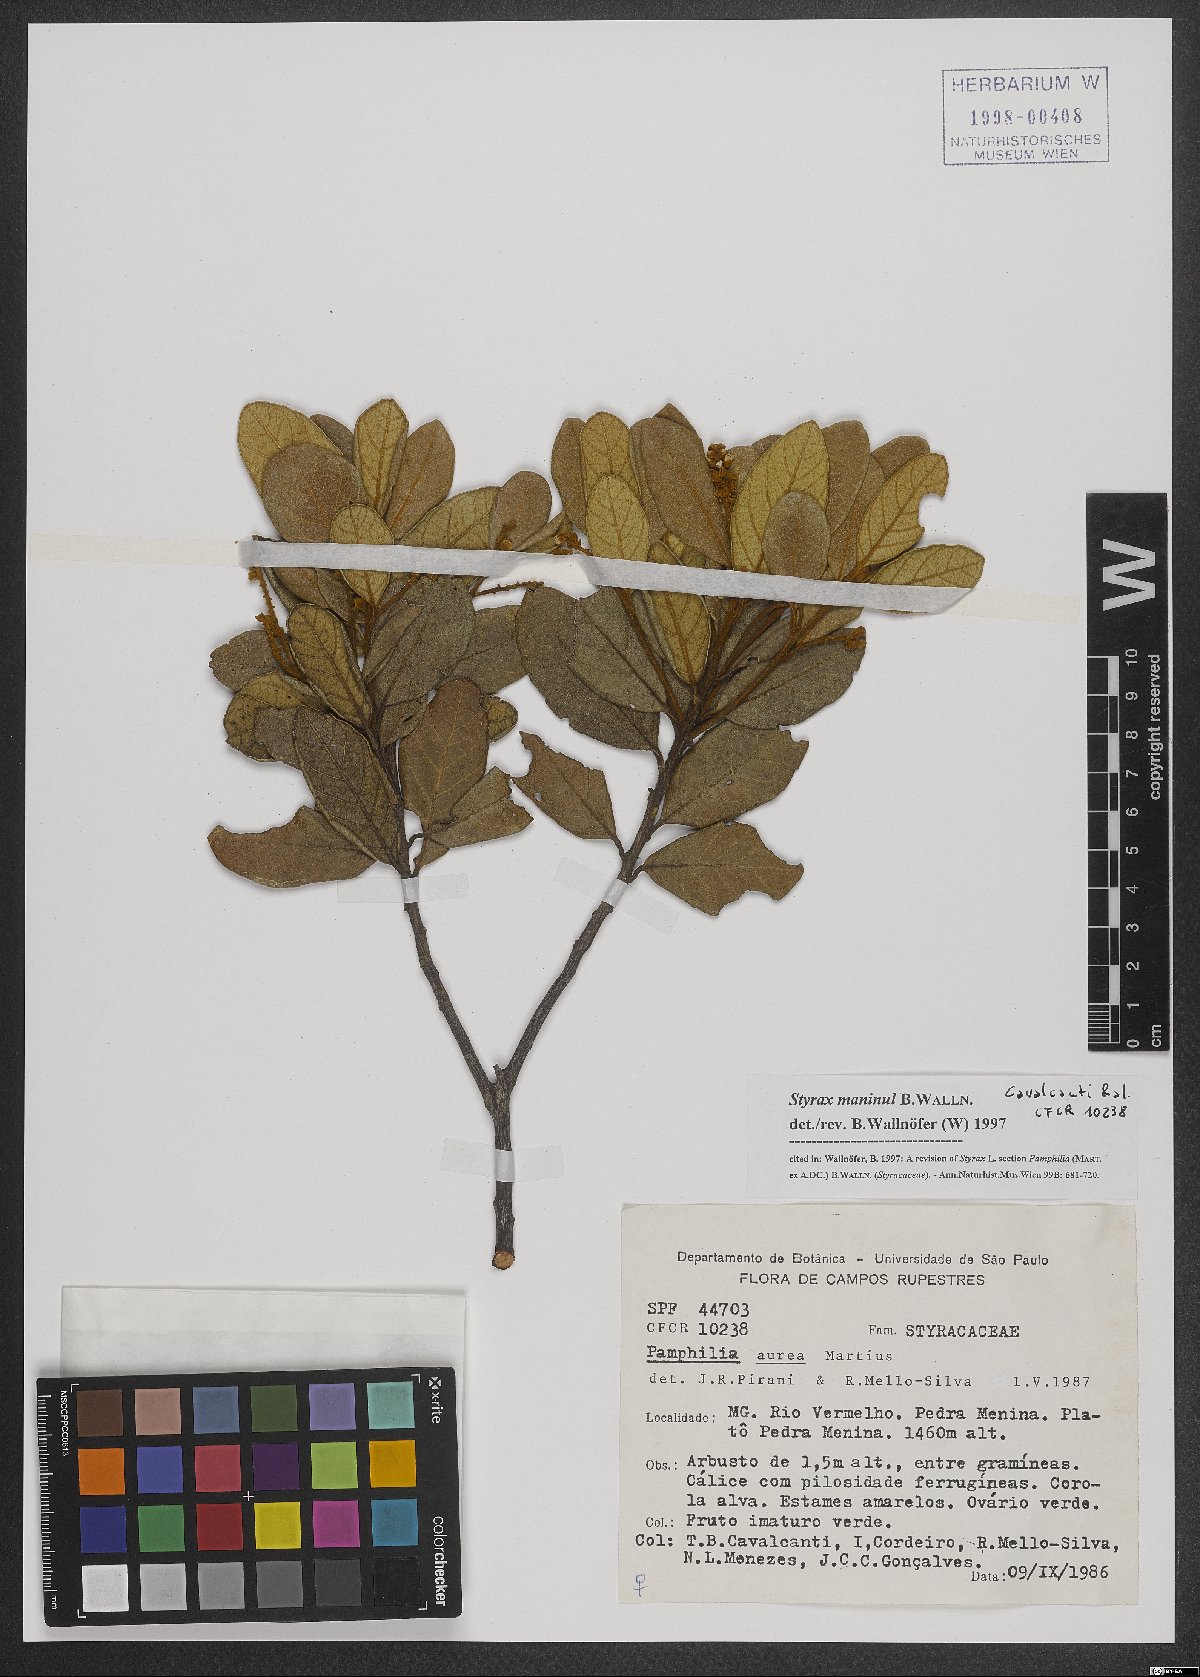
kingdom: Plantae
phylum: Tracheophyta
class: Magnoliopsida
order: Ericales
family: Styracaceae
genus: Styrax
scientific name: Styrax maninul
